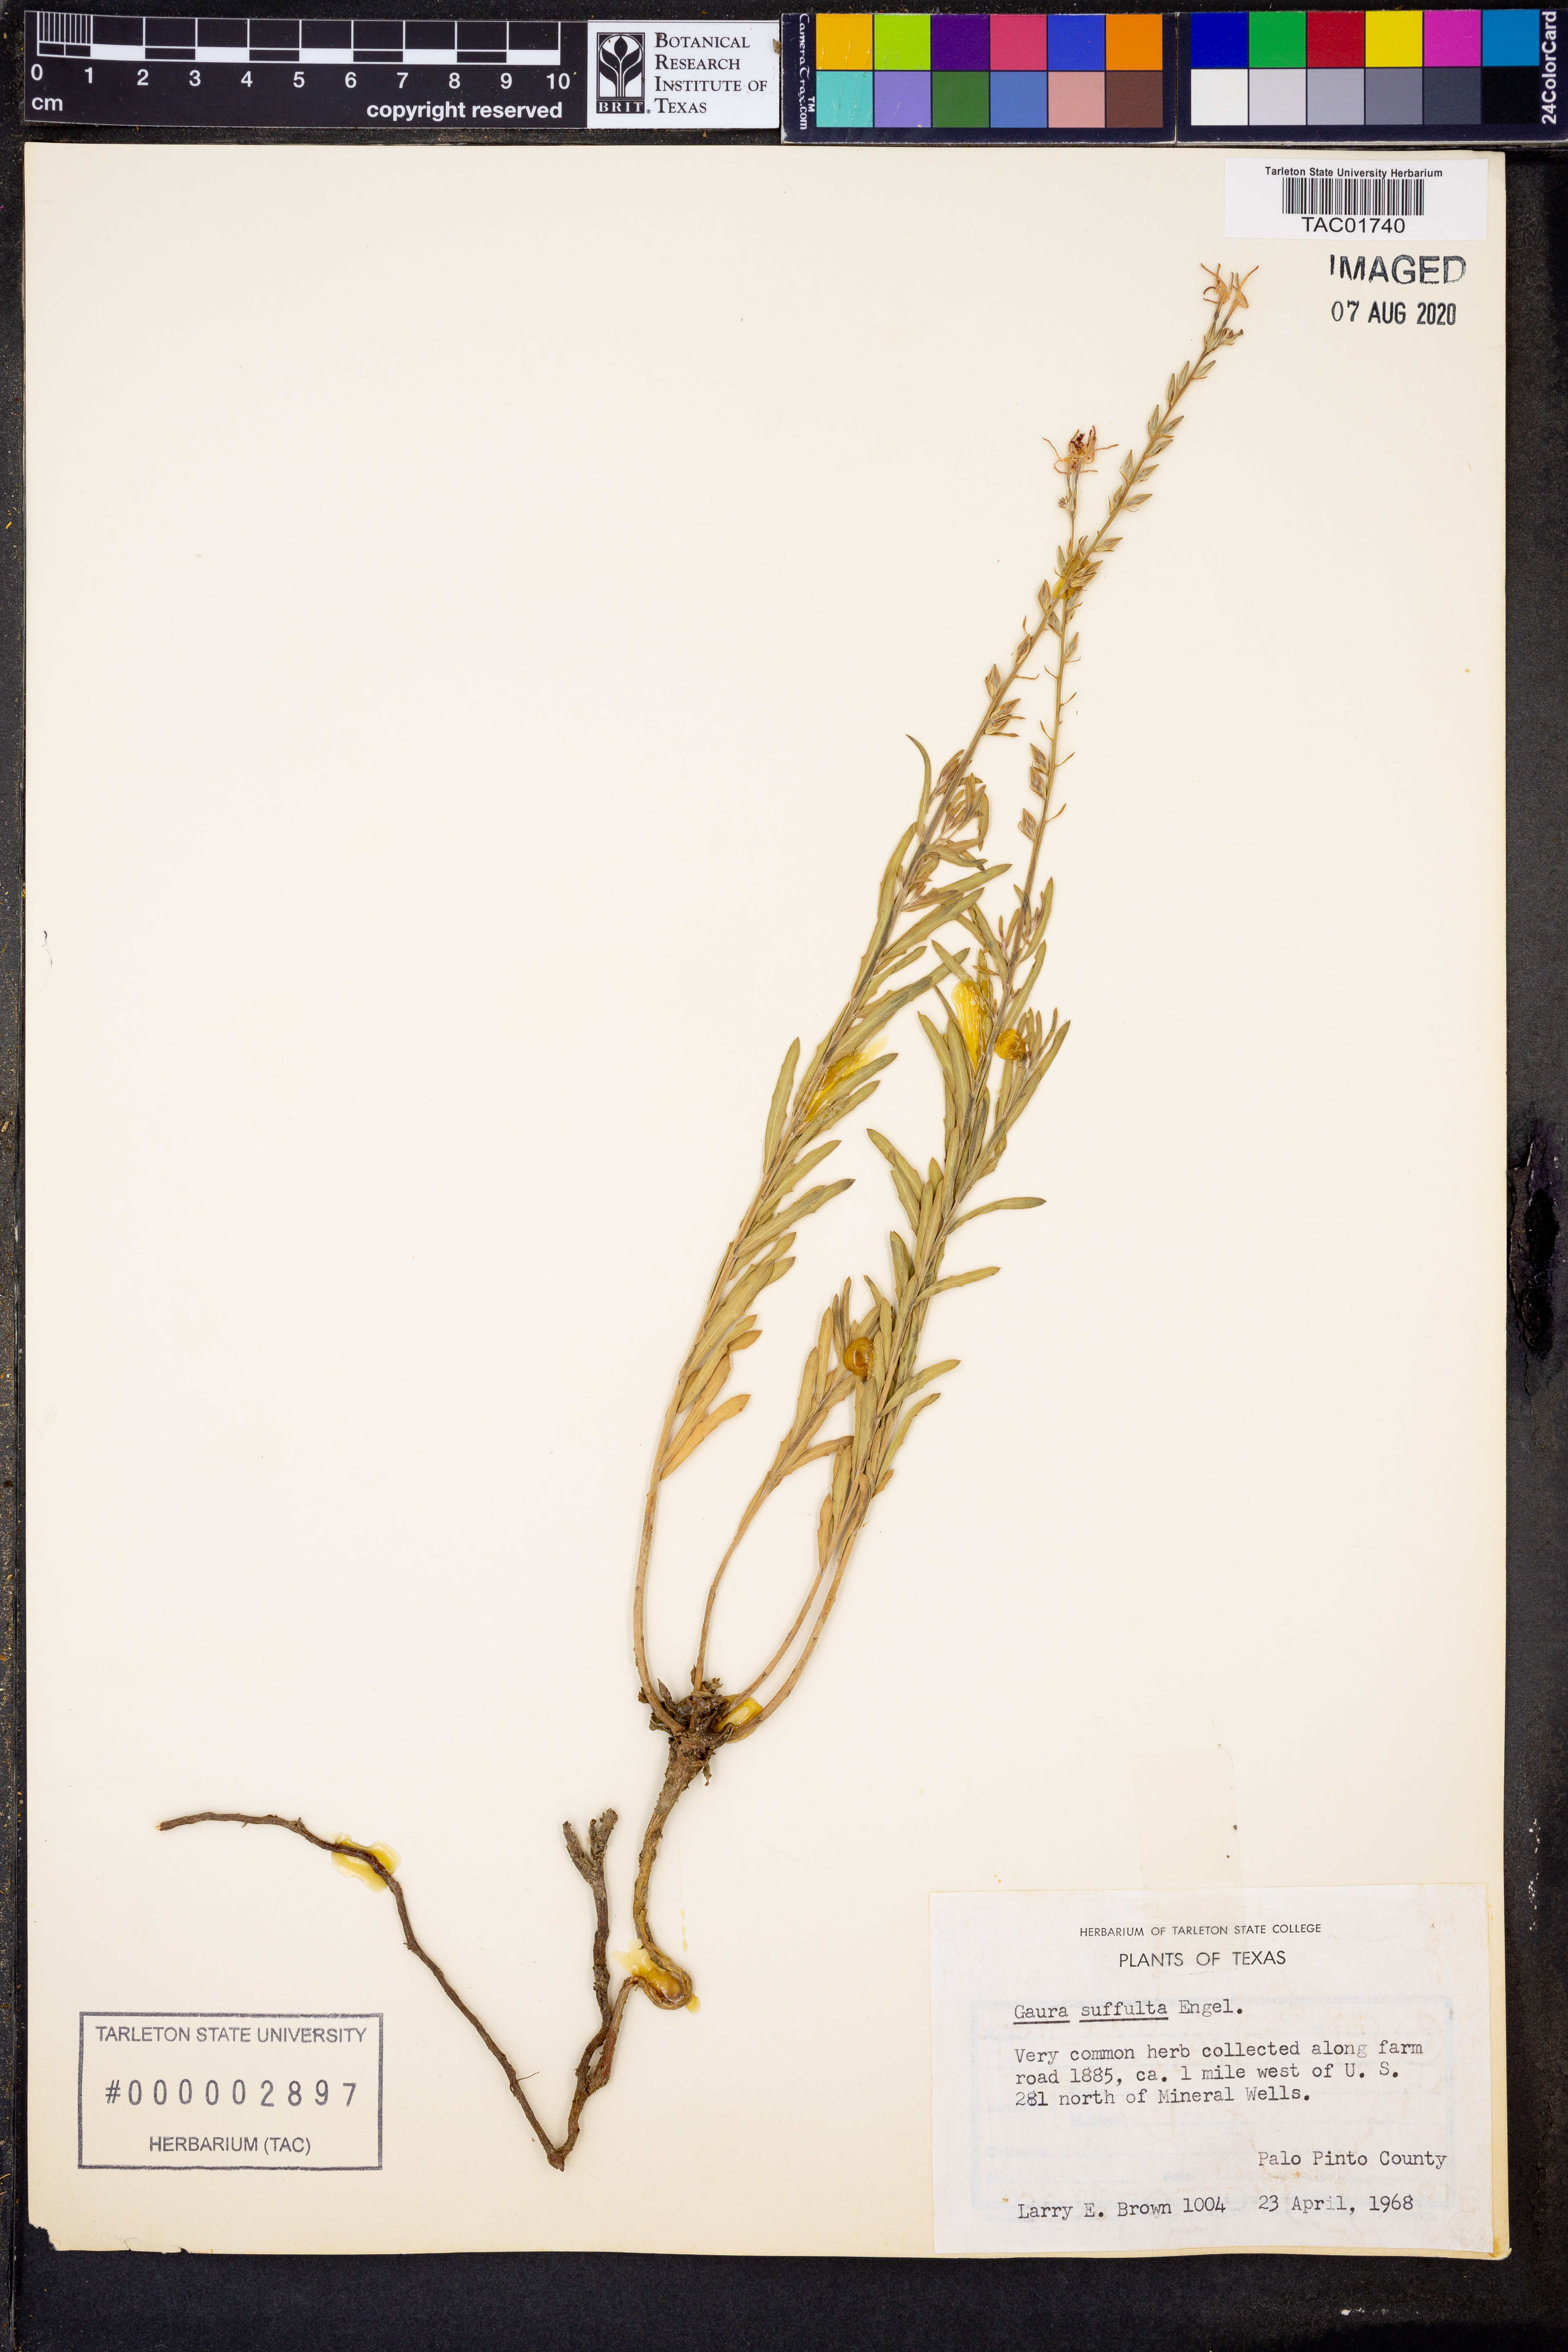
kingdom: Plantae
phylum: Tracheophyta
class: Magnoliopsida
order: Myrtales
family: Onagraceae
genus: Oenothera
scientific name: Oenothera Gaura suffulta
